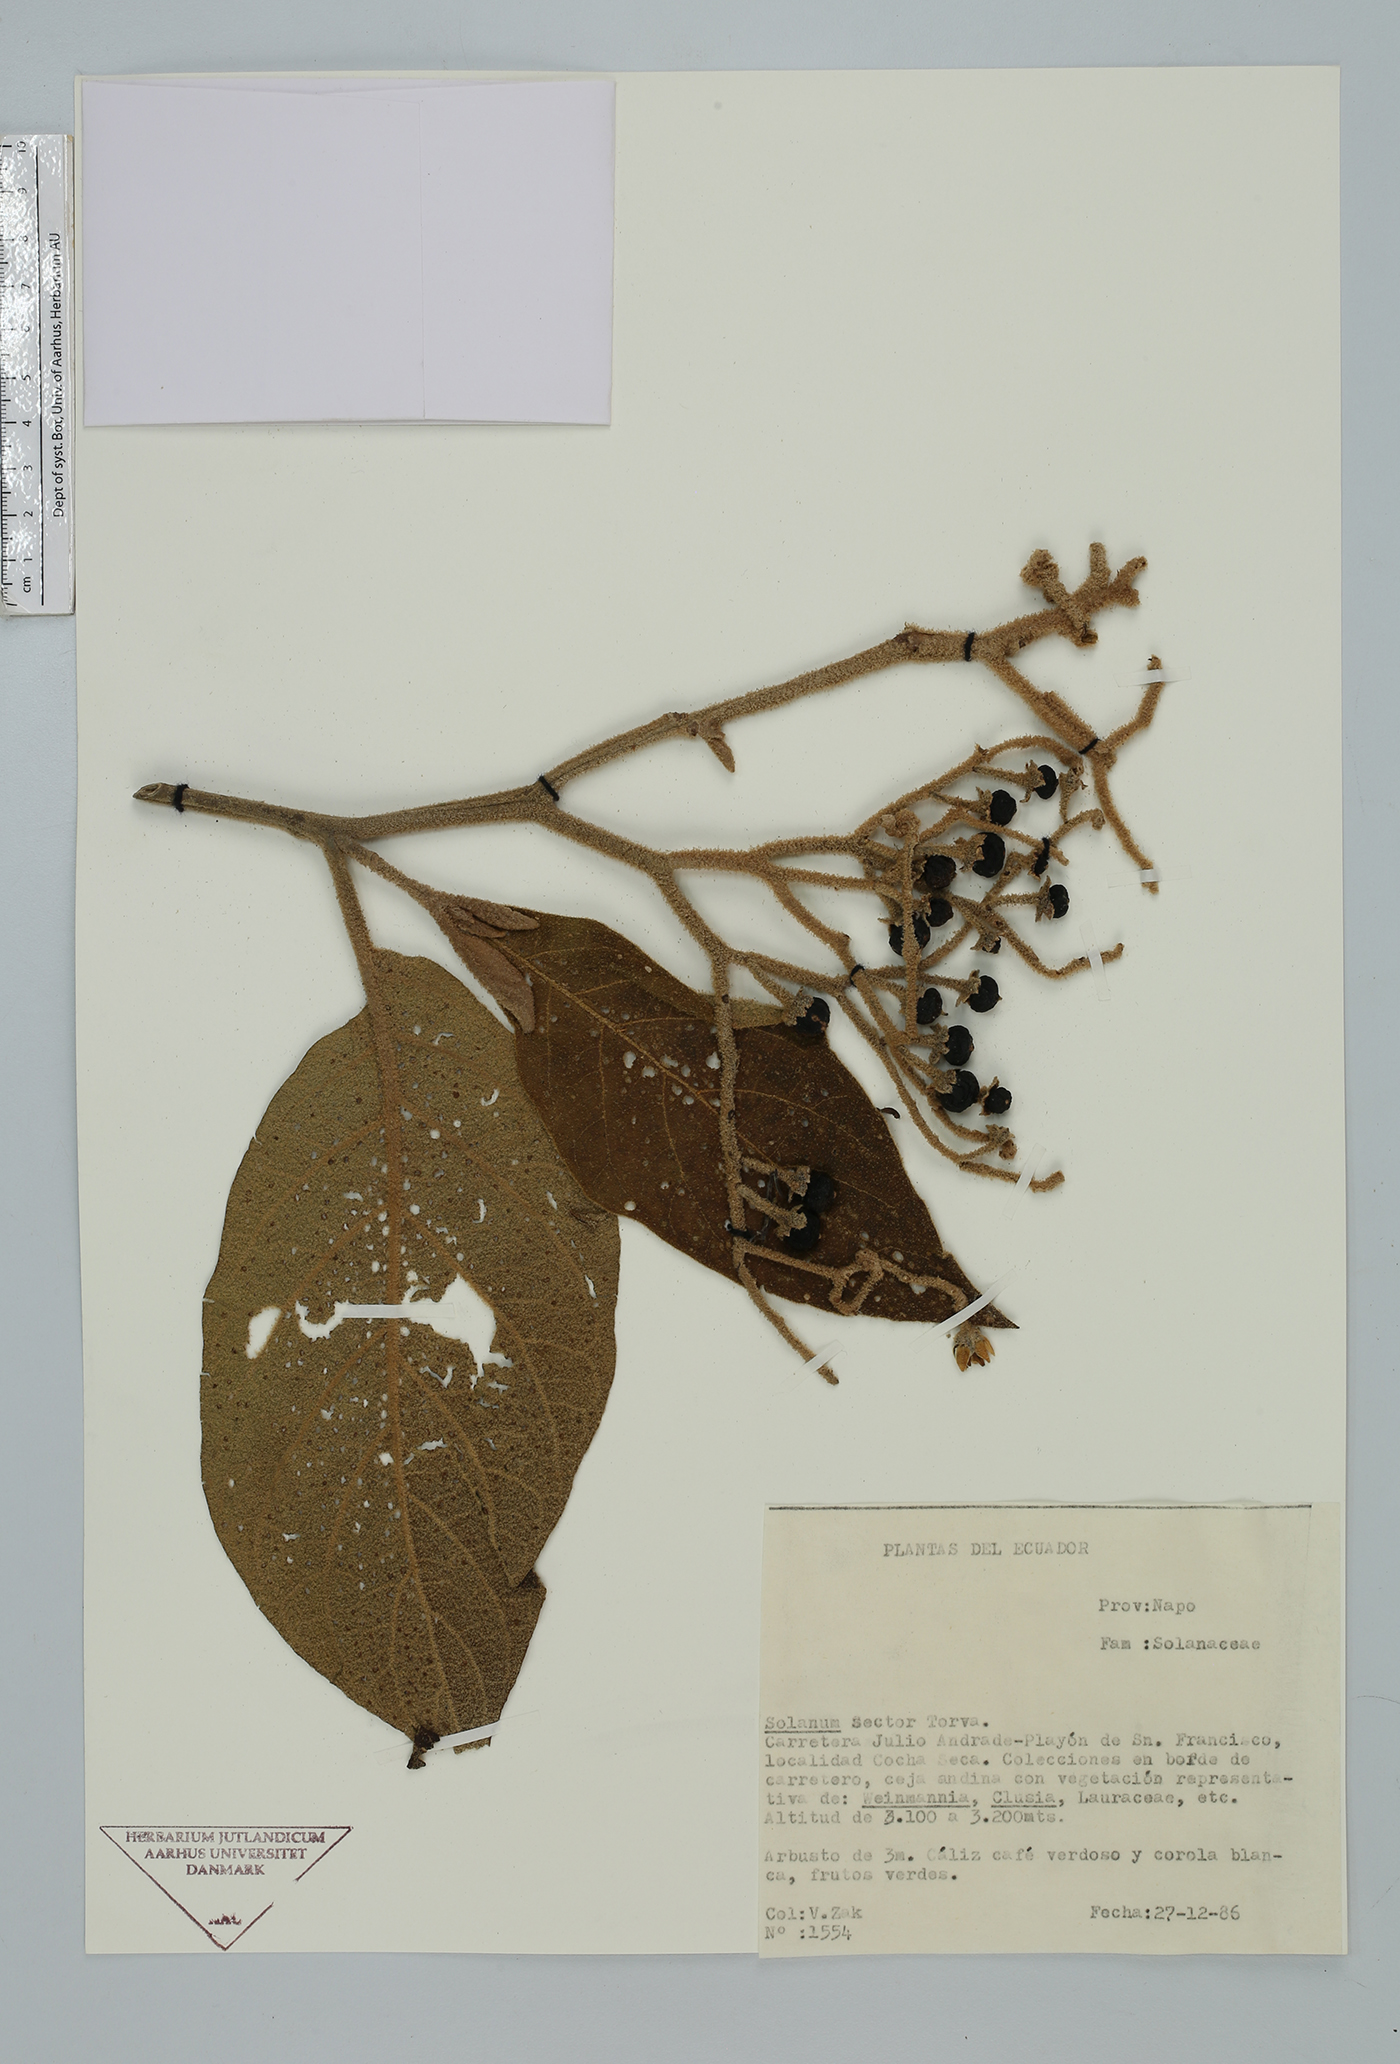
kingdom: Plantae
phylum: Tracheophyta
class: Magnoliopsida
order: Solanales
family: Solanaceae
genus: Solanum
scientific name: Solanum
